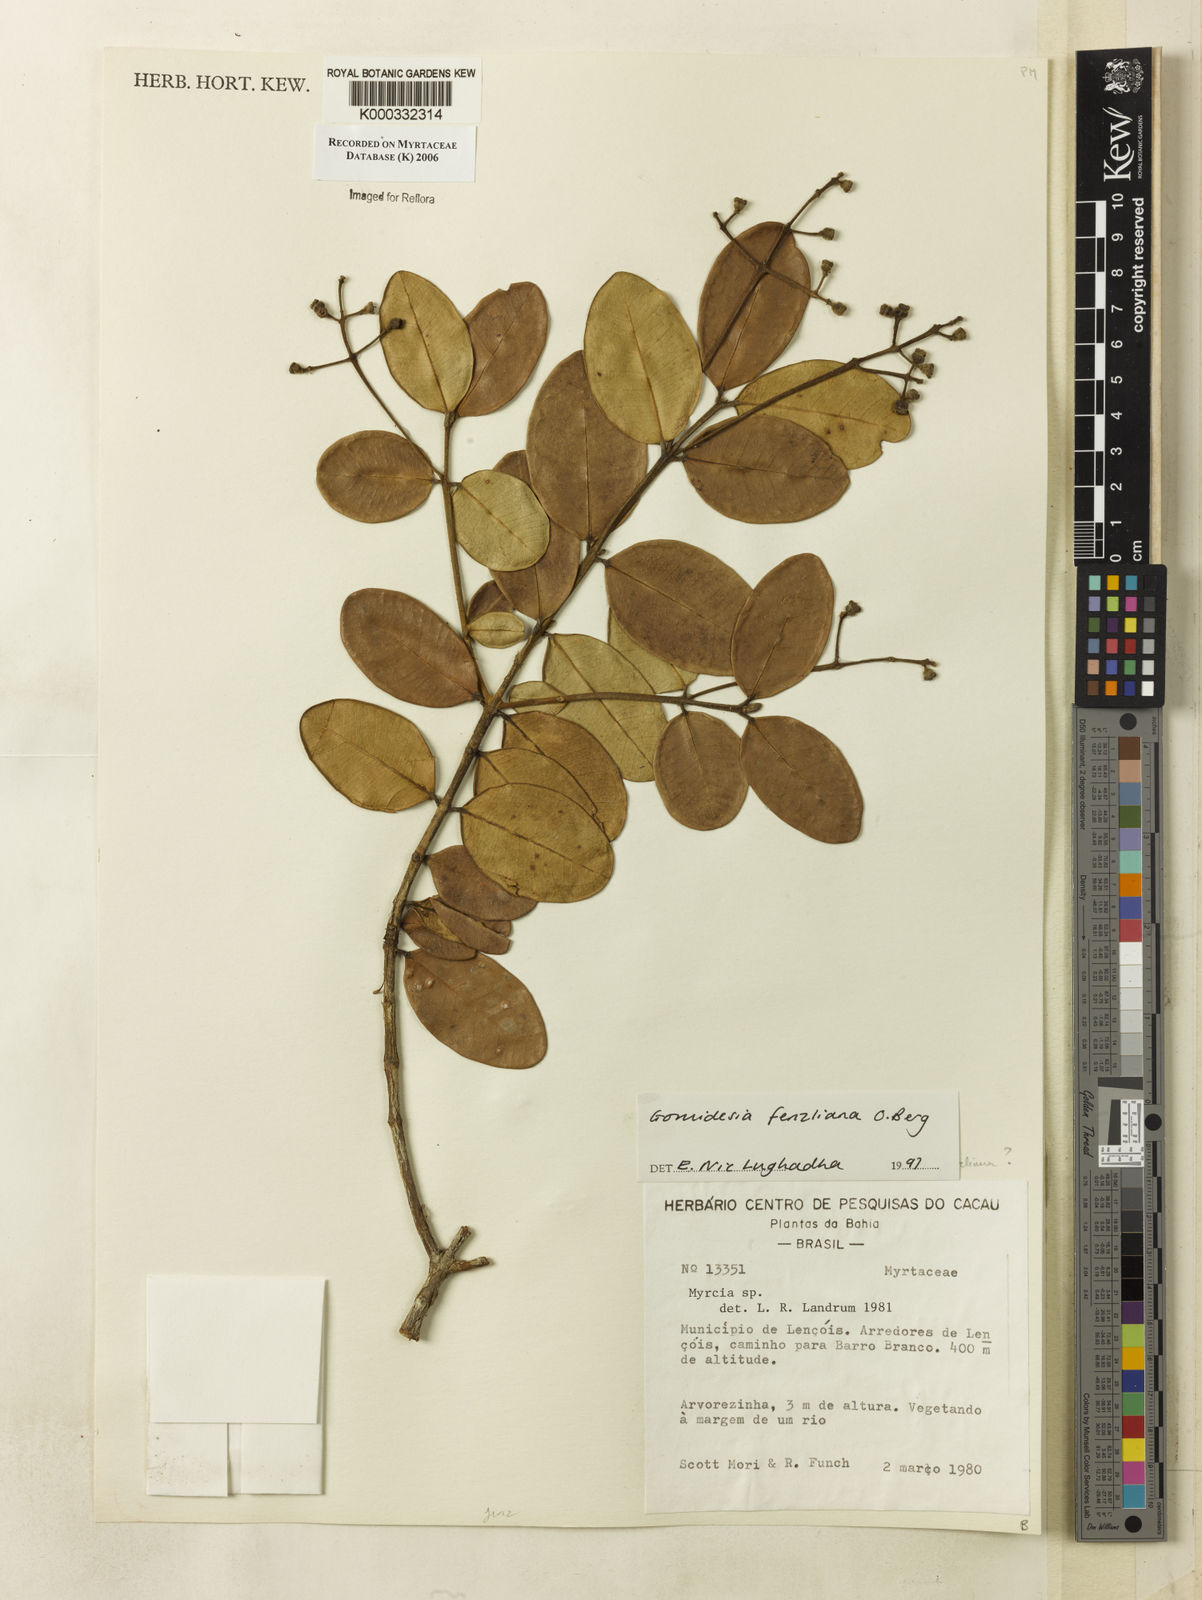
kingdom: Plantae
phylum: Tracheophyta
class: Magnoliopsida
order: Myrtales
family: Myrtaceae
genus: Myrcia
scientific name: Myrcia ilheosensis
